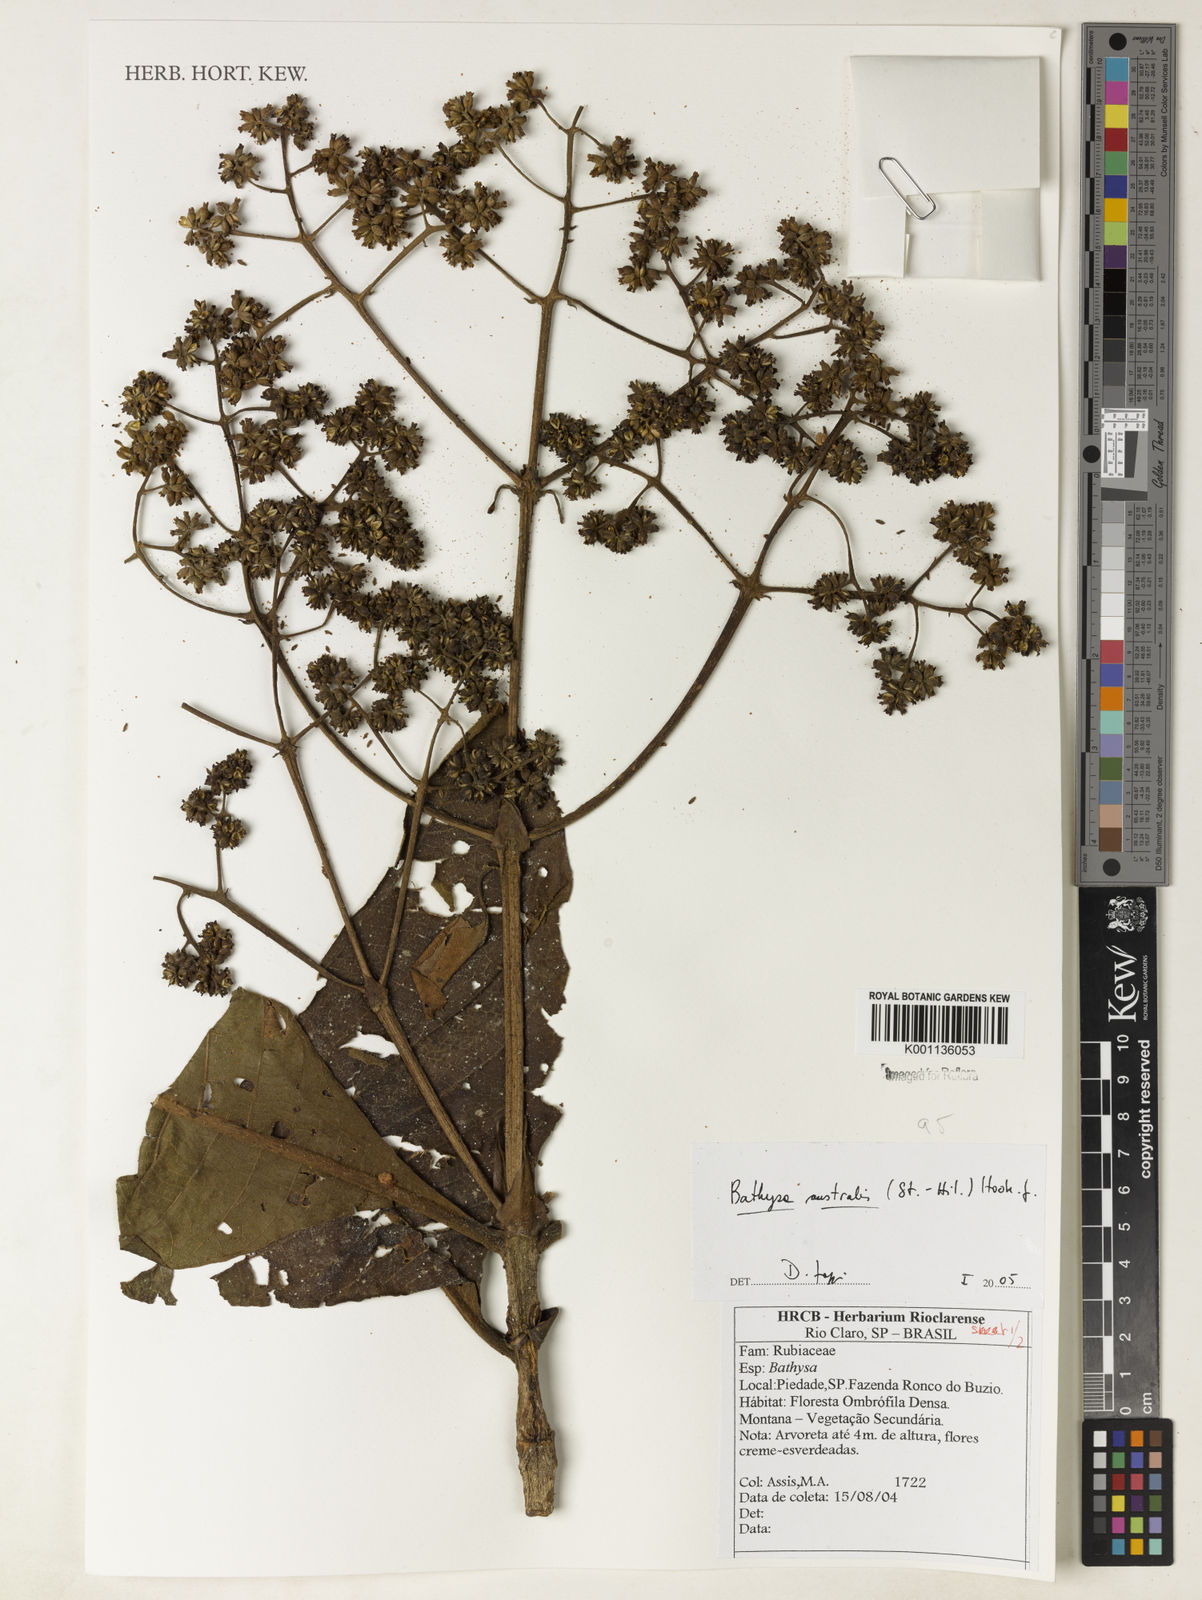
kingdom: Plantae
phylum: Tracheophyta
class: Magnoliopsida
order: Gentianales
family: Rubiaceae
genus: Bathysa
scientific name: Bathysa australis
